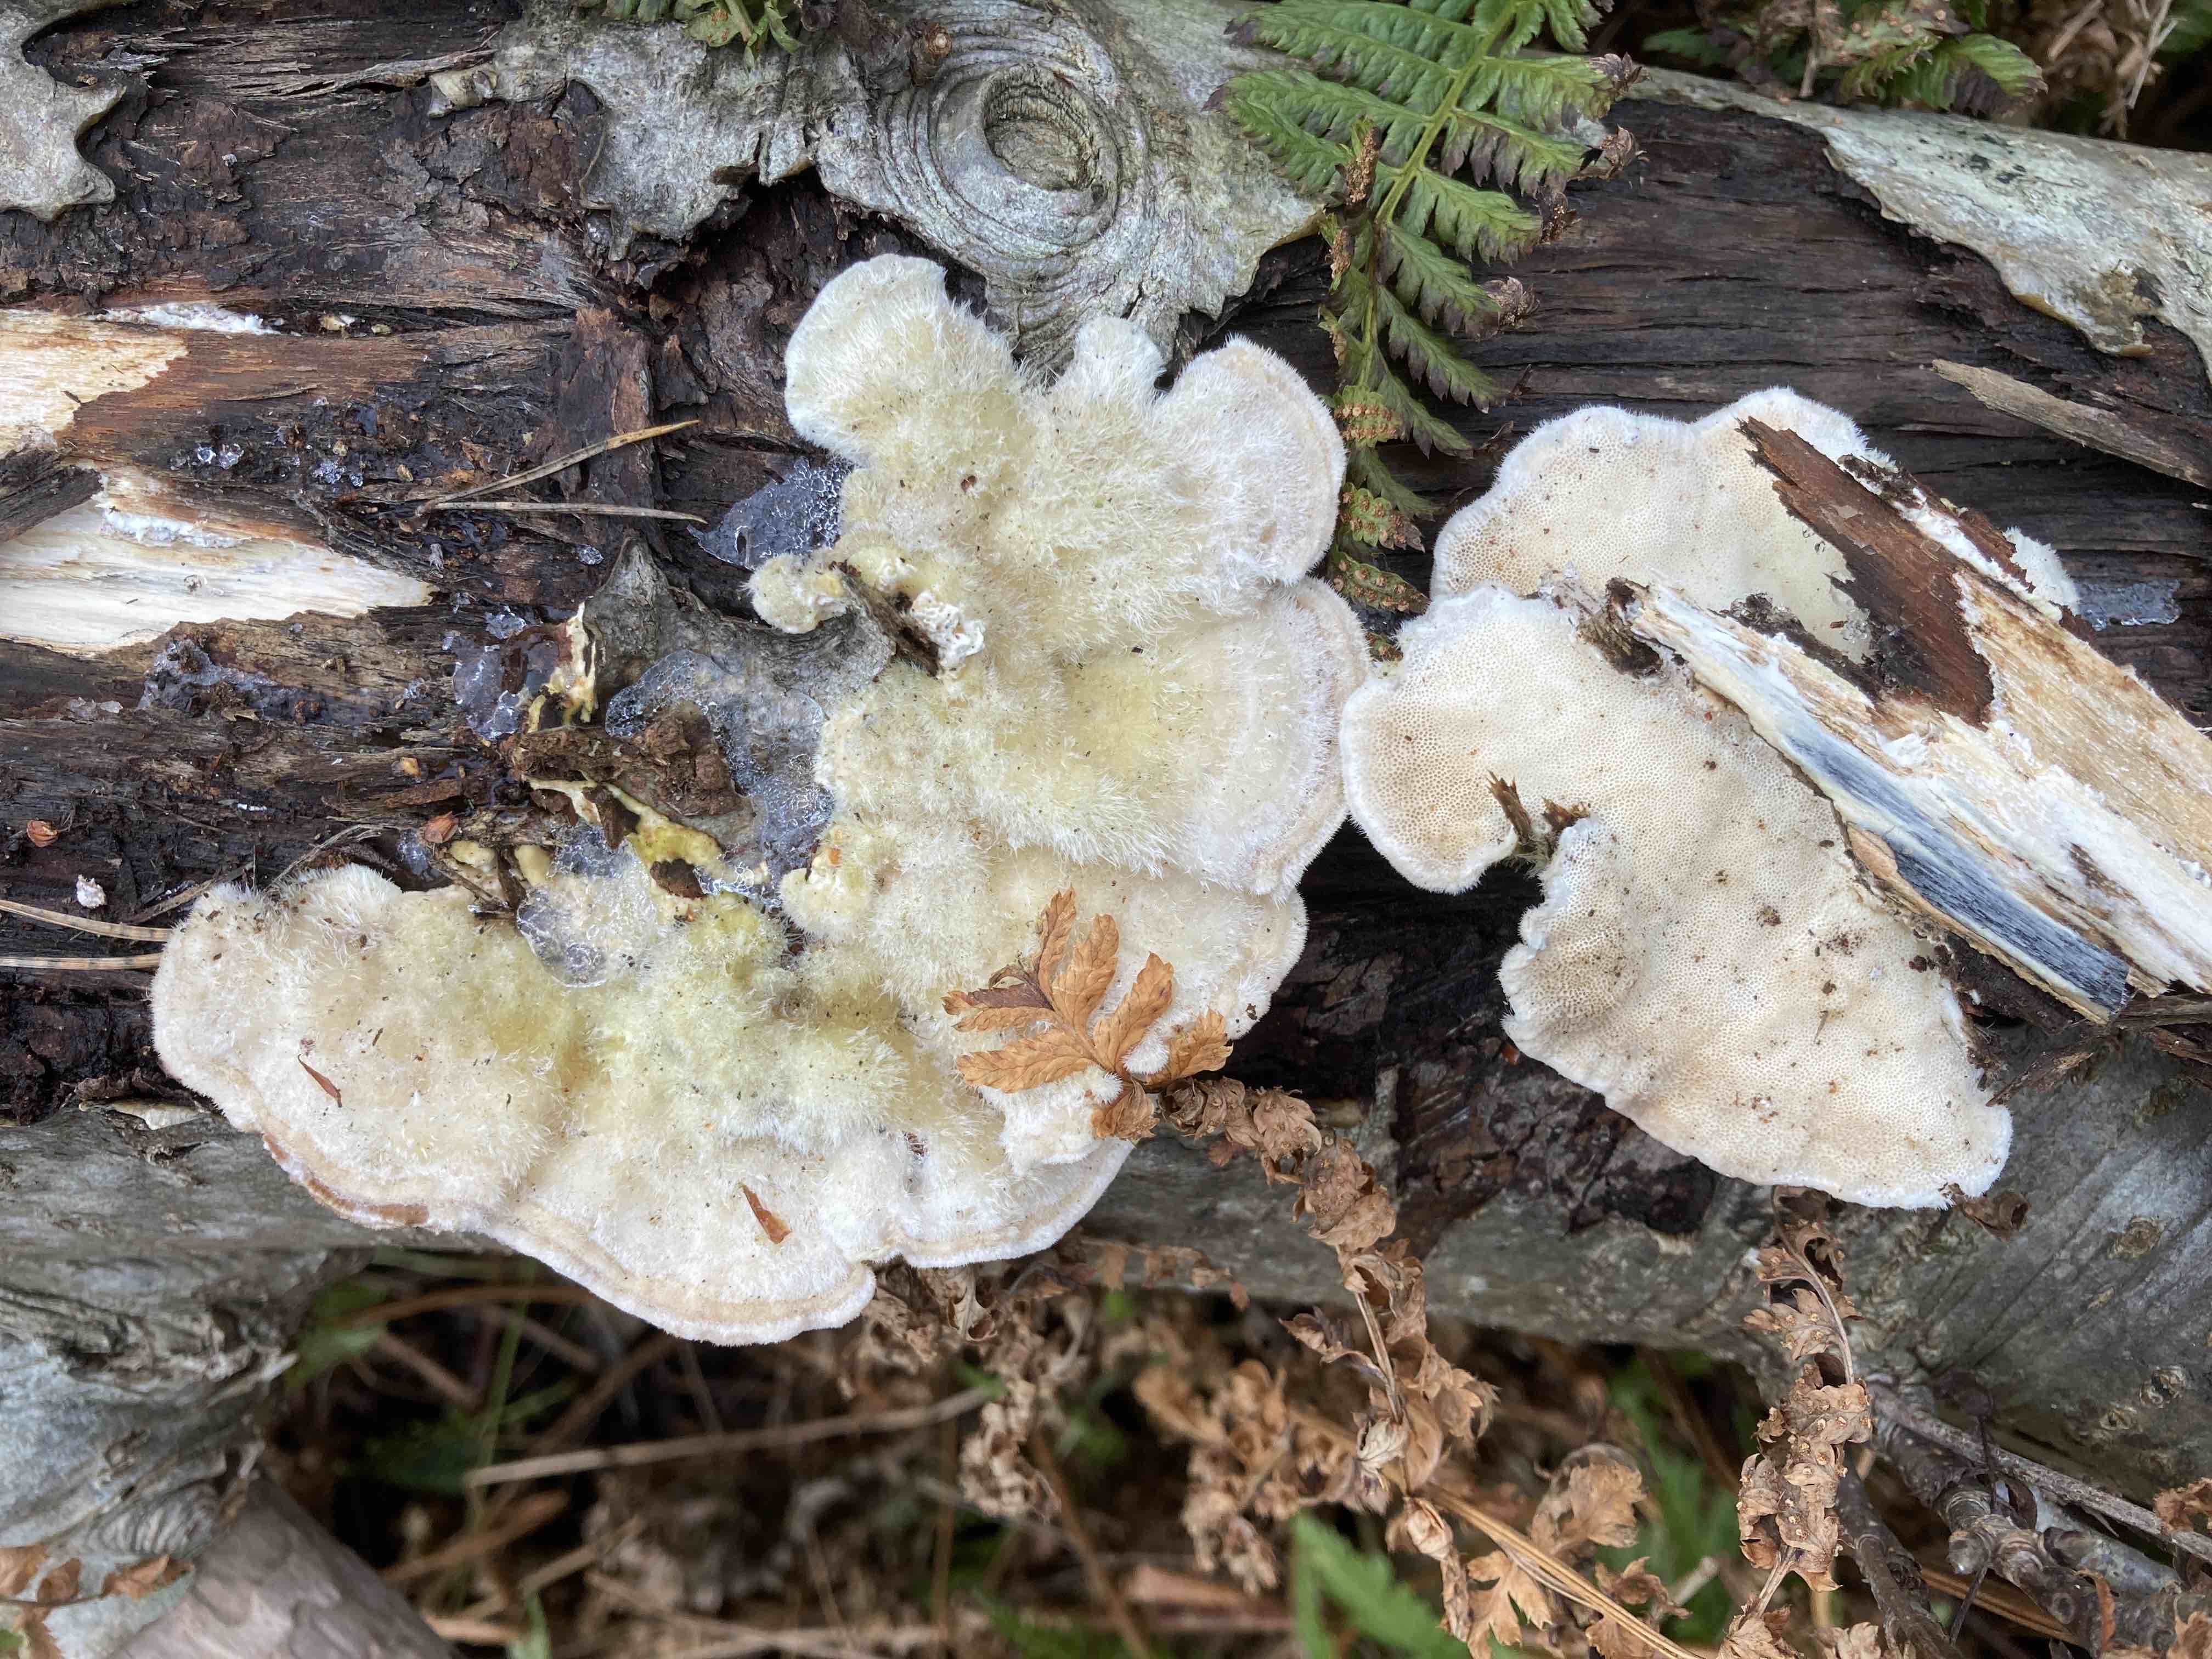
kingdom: Fungi
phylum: Basidiomycota
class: Agaricomycetes
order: Polyporales
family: Polyporaceae
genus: Trametes
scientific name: Trametes hirsuta
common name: håret læderporesvamp
